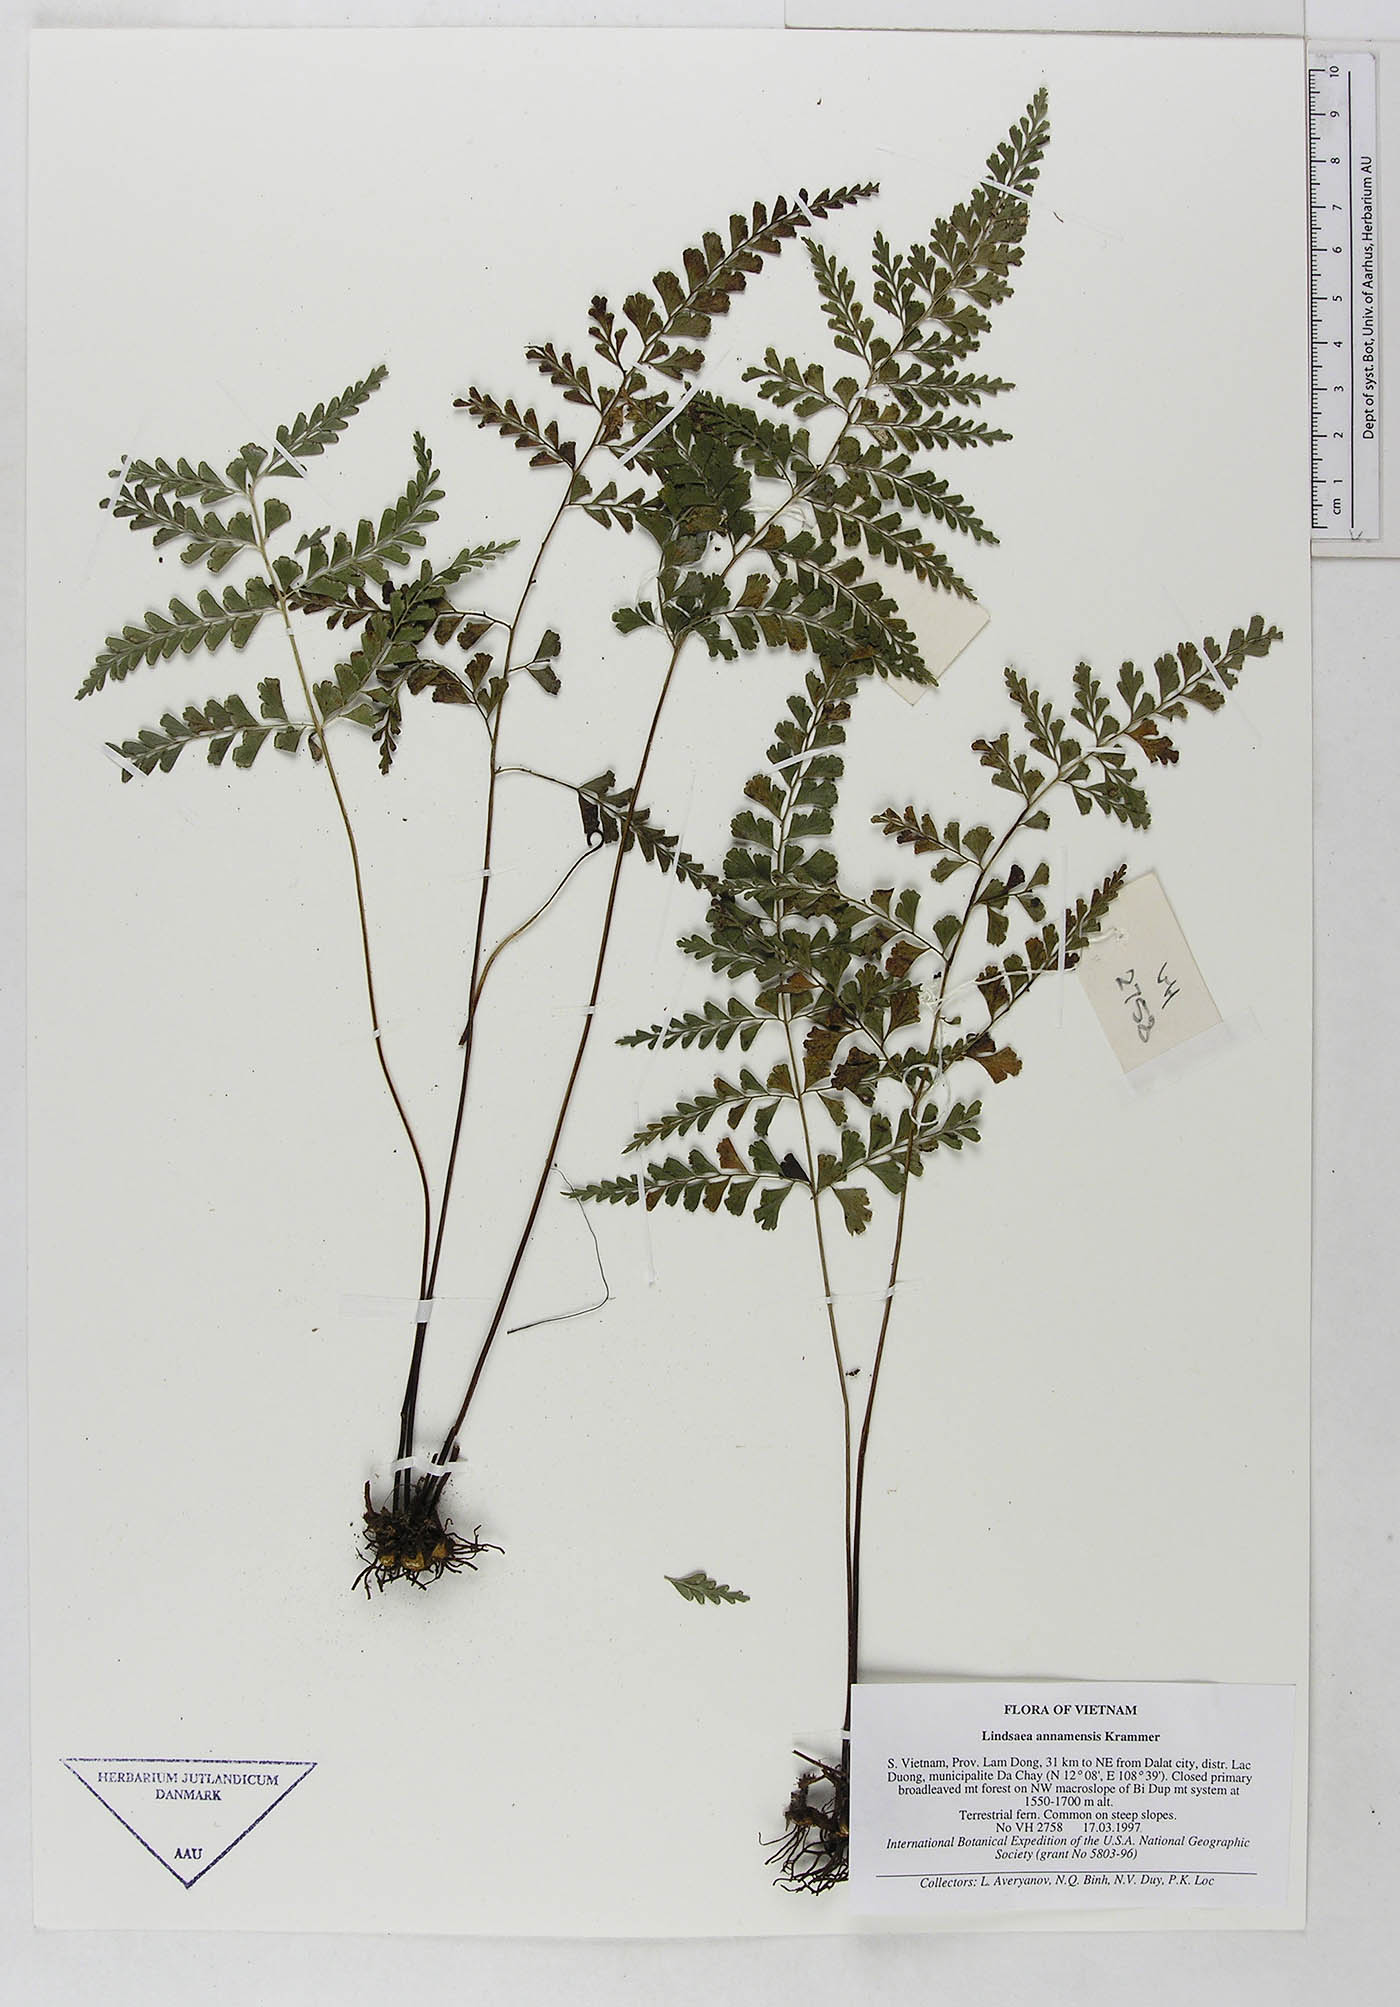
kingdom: Plantae
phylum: Tracheophyta
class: Polypodiopsida
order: Polypodiales
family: Lindsaeaceae
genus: Lindsaea
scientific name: Lindsaea chienii
